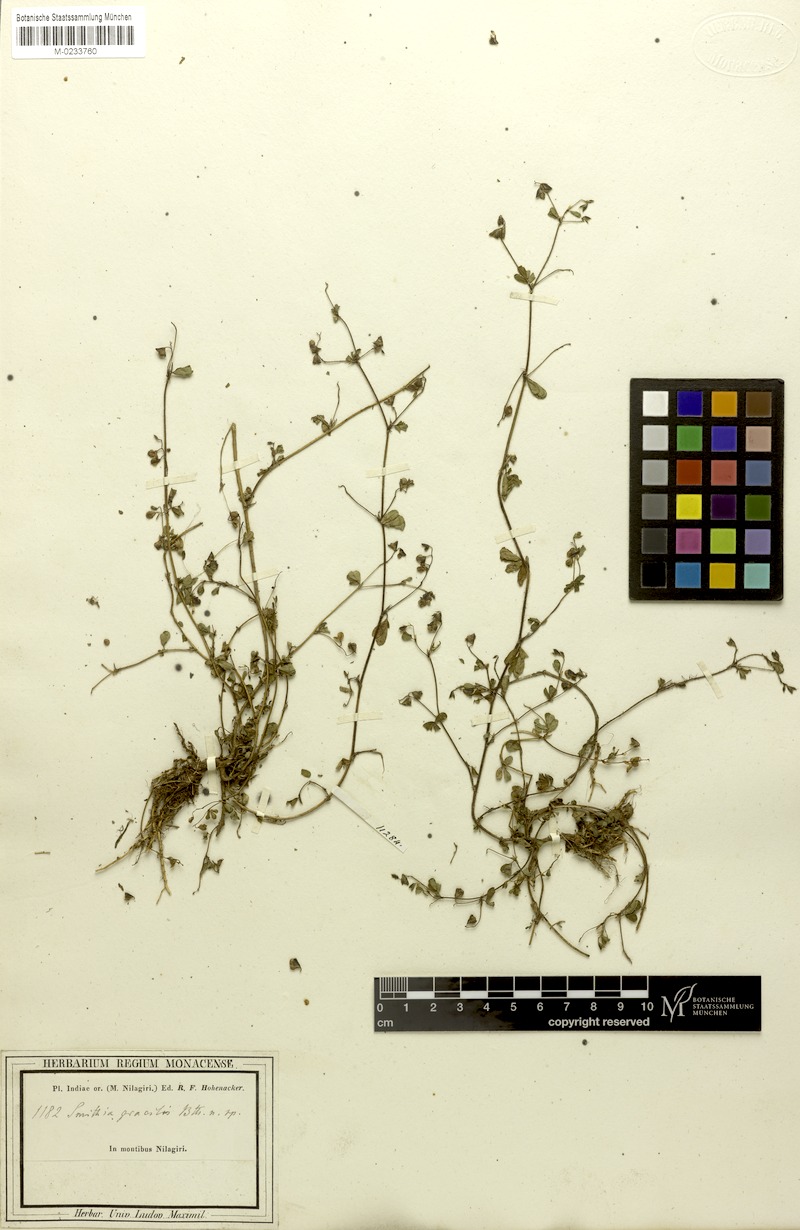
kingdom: Plantae
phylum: Tracheophyta
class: Magnoliopsida
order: Fabales
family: Fabaceae
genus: Smithia
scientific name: Smithia gracilis
